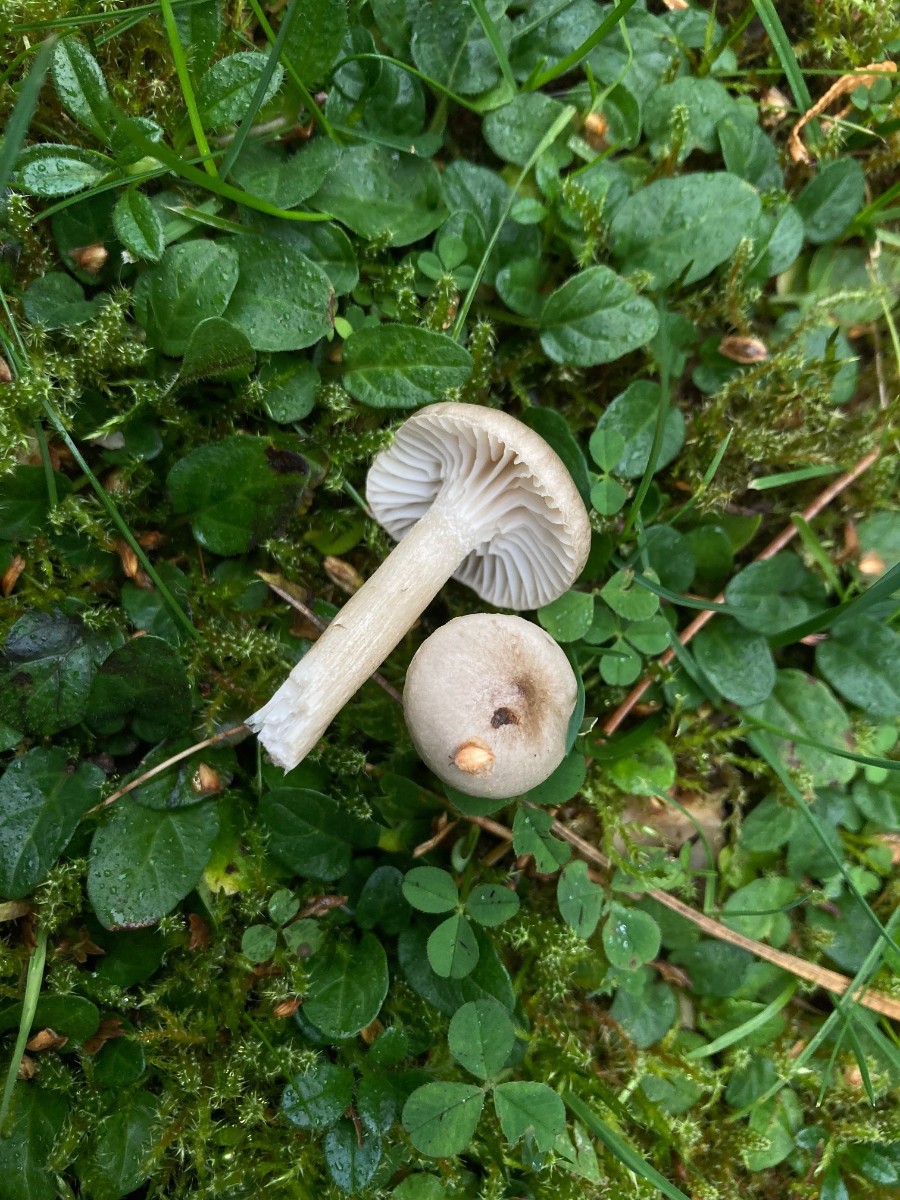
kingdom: Fungi
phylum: Basidiomycota
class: Agaricomycetes
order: Agaricales
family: Hygrophoraceae
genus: Hygrophorus
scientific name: Hygrophorus suaveolens
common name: parfumeret sneglehat
